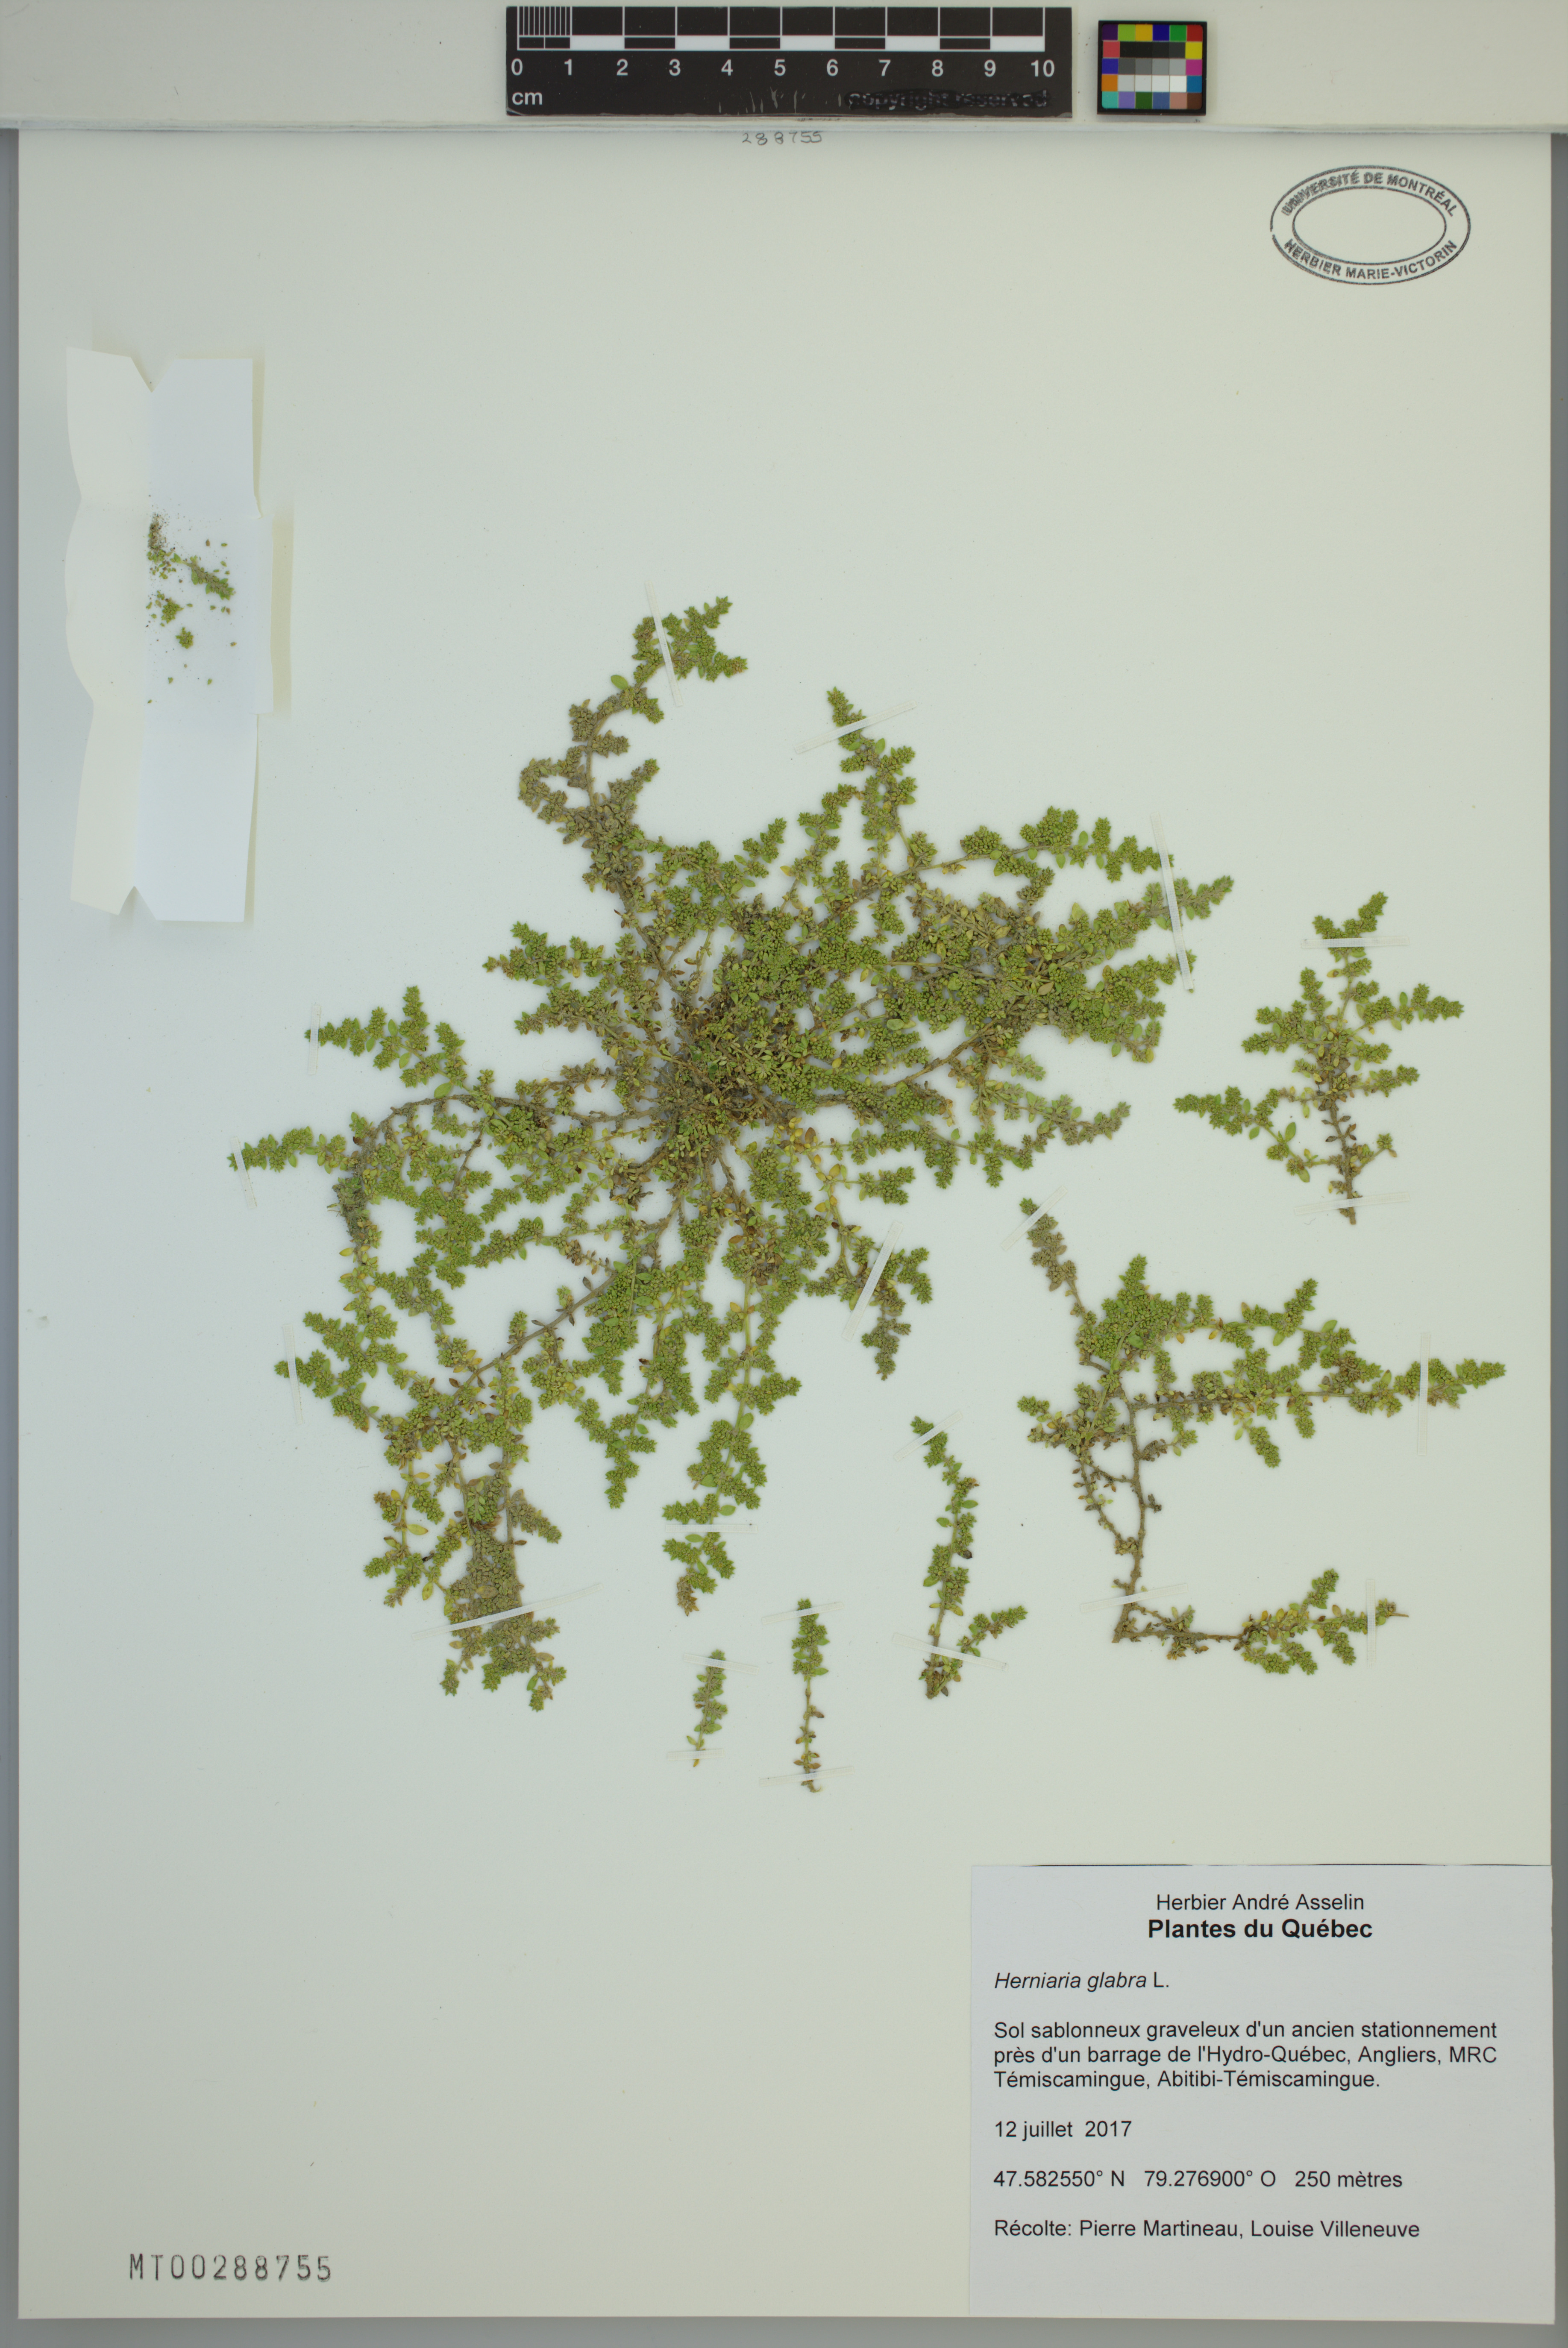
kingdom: Plantae
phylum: Tracheophyta
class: Magnoliopsida
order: Caryophyllales
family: Caryophyllaceae
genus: Herniaria
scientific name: Herniaria glabra
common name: Smooth rupturewort
